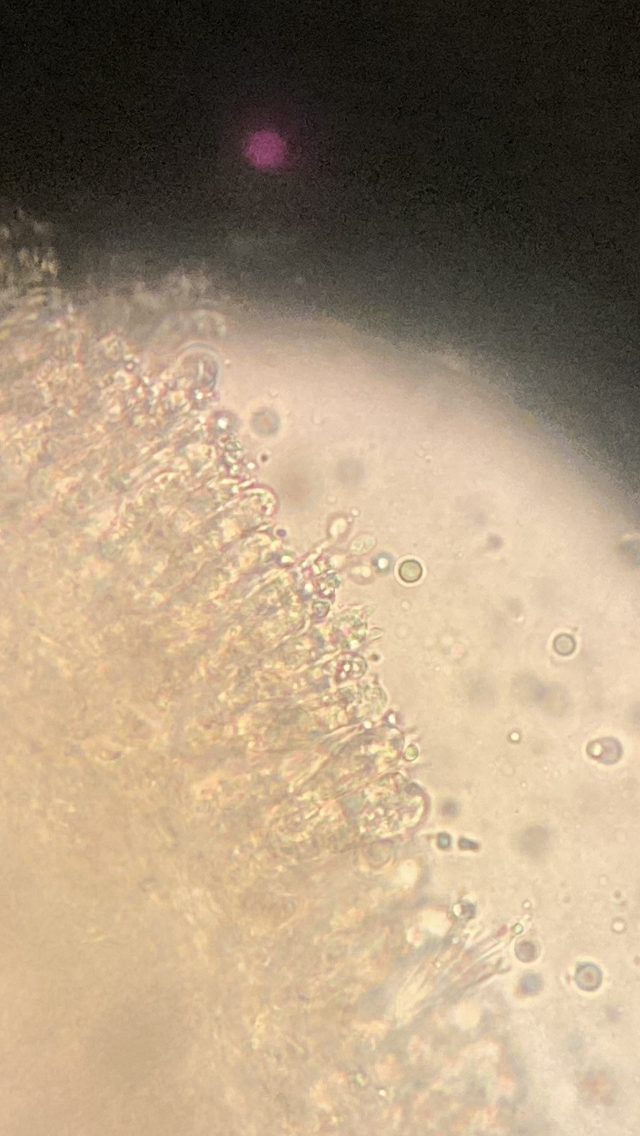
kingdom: Fungi
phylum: Basidiomycota
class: Agaricomycetes
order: Agaricales
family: Mycenaceae
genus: Mycena
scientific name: Mycena epipterygia
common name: gulstokket huesvamp
